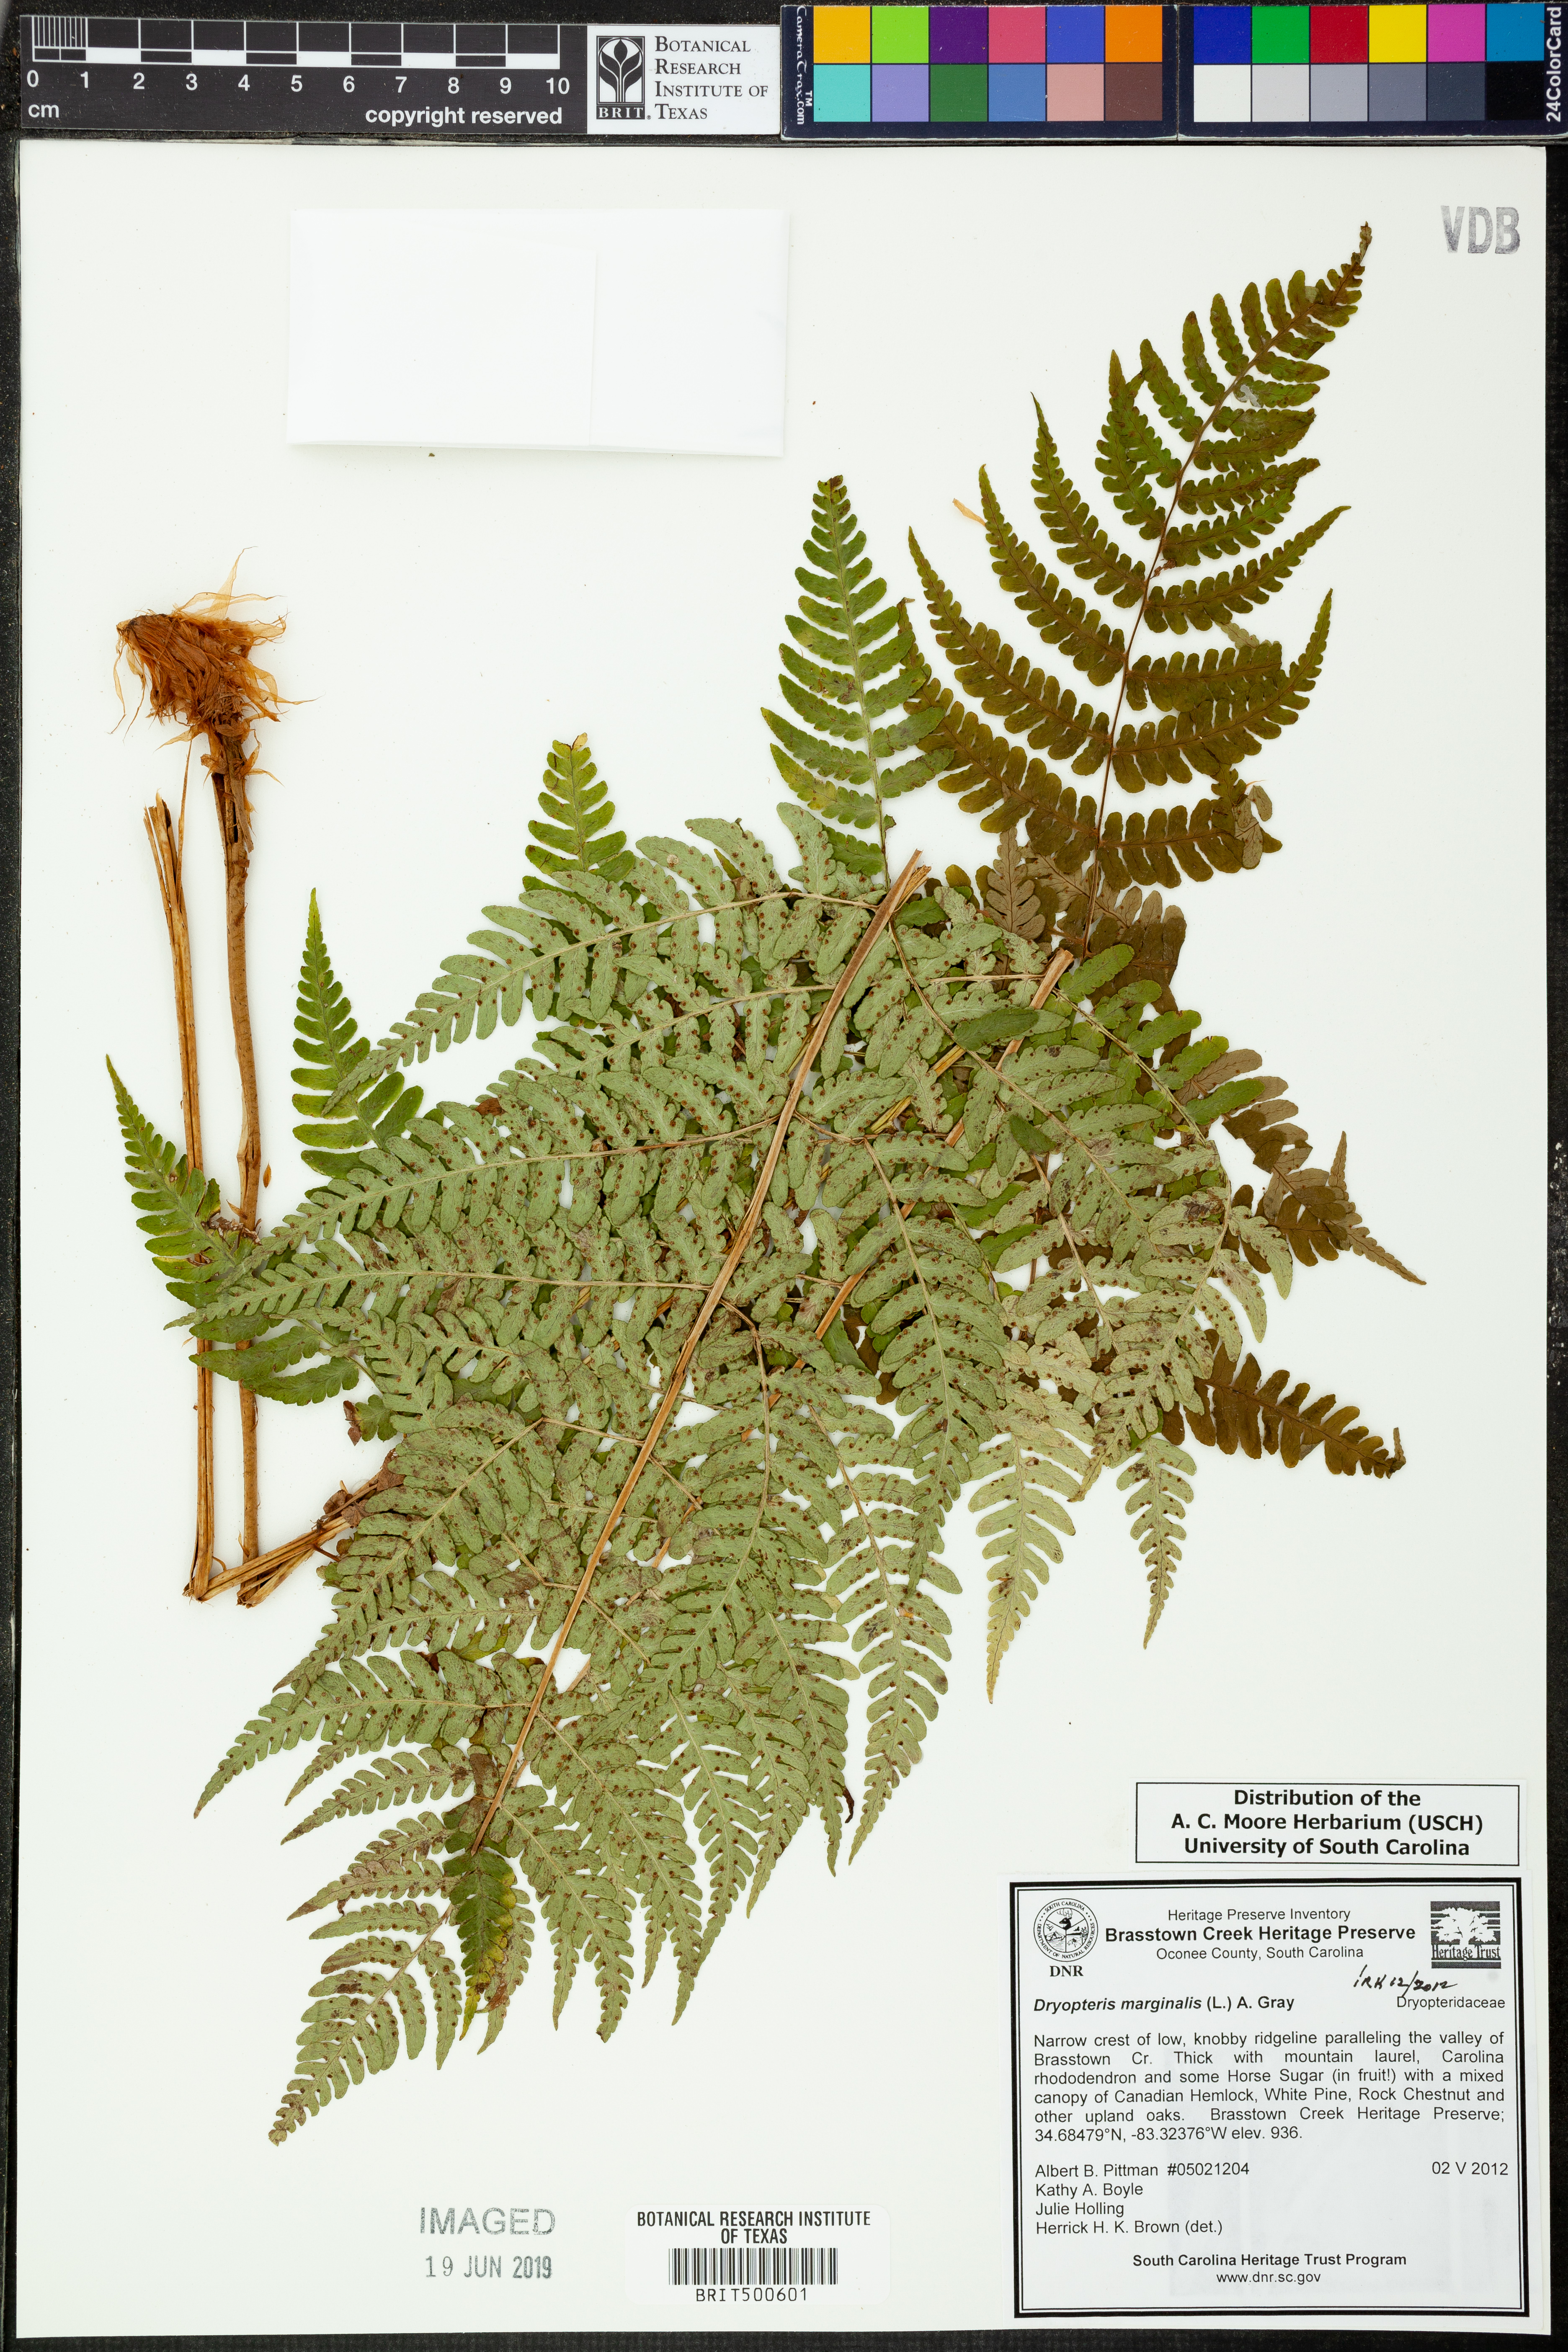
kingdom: Plantae
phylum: Tracheophyta
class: Polypodiopsida
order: Polypodiales
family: Dryopteridaceae
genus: Dryopteris
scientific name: Dryopteris marginalis
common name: Marginal wood fern
